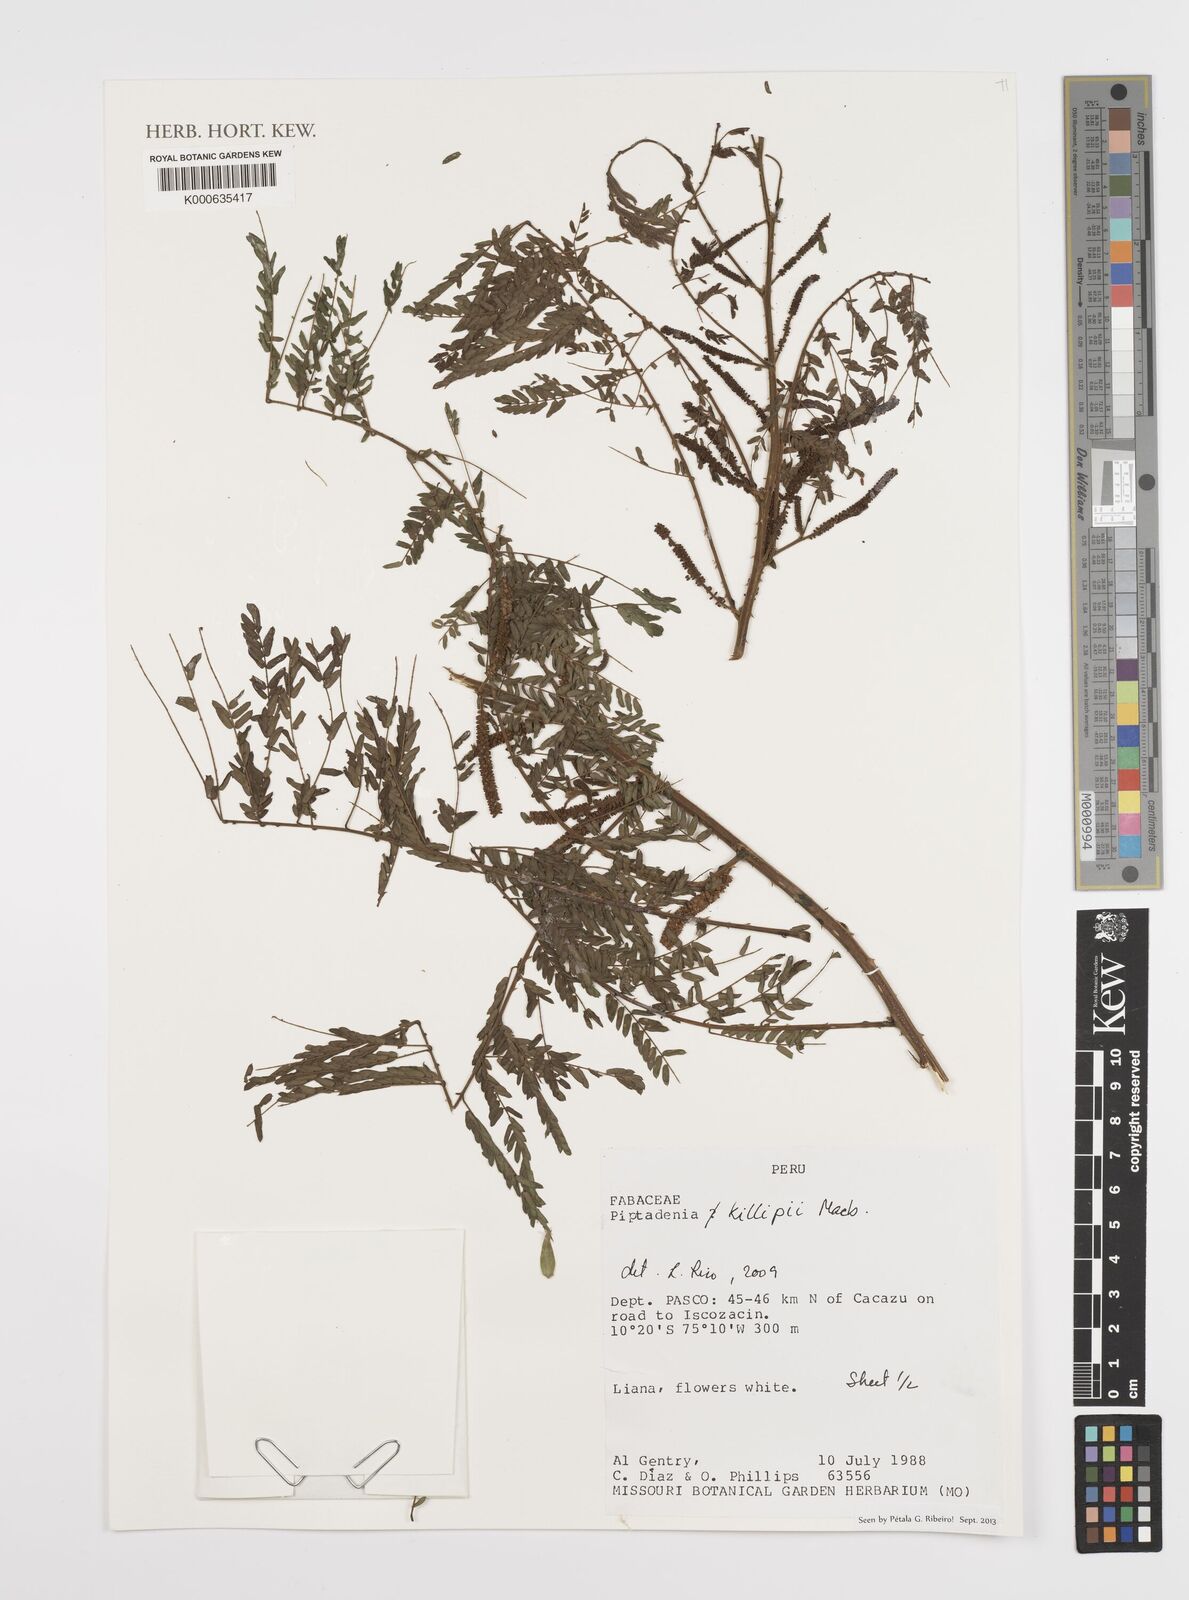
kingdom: Plantae
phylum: Tracheophyta
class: Magnoliopsida
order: Fabales
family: Fabaceae
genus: Pseudopiptadenia
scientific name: Pseudopiptadenia
